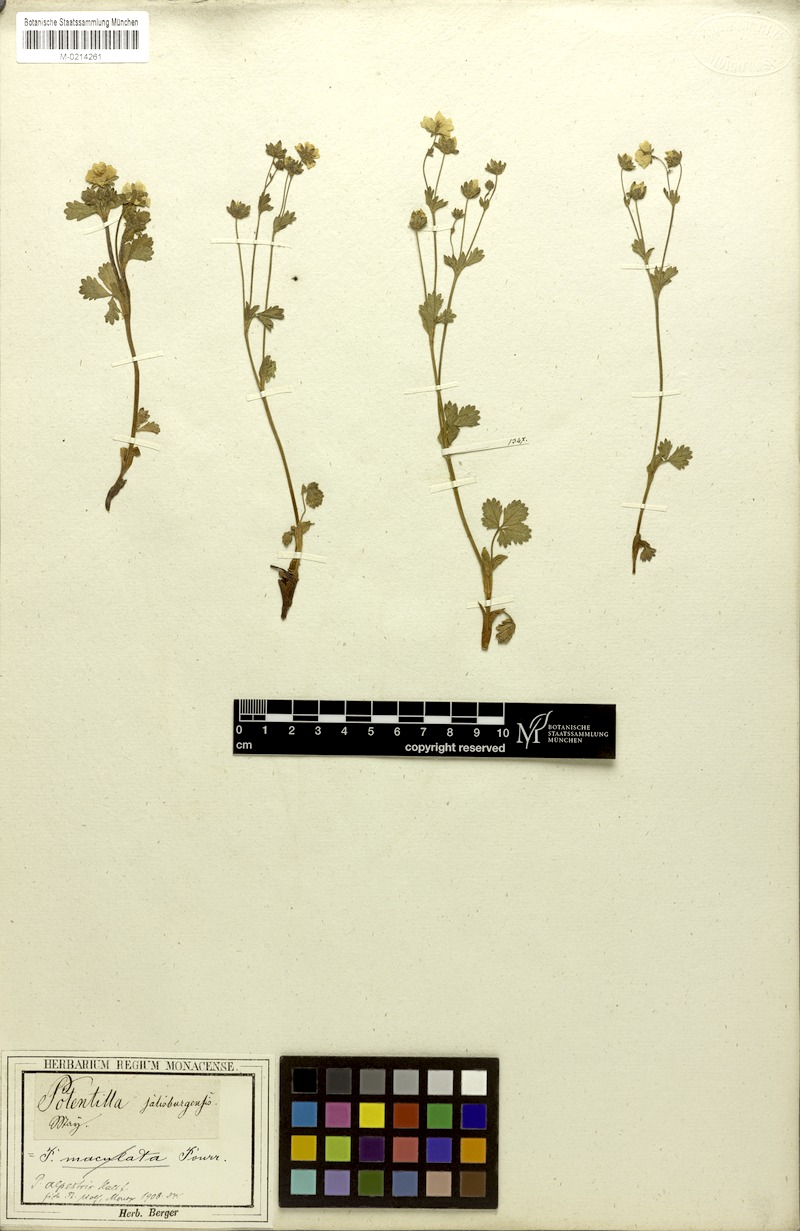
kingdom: Plantae
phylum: Tracheophyta
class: Magnoliopsida
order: Rosales
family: Rosaceae
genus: Potentilla
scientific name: Potentilla crantzii
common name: Alpine cinquefoil
